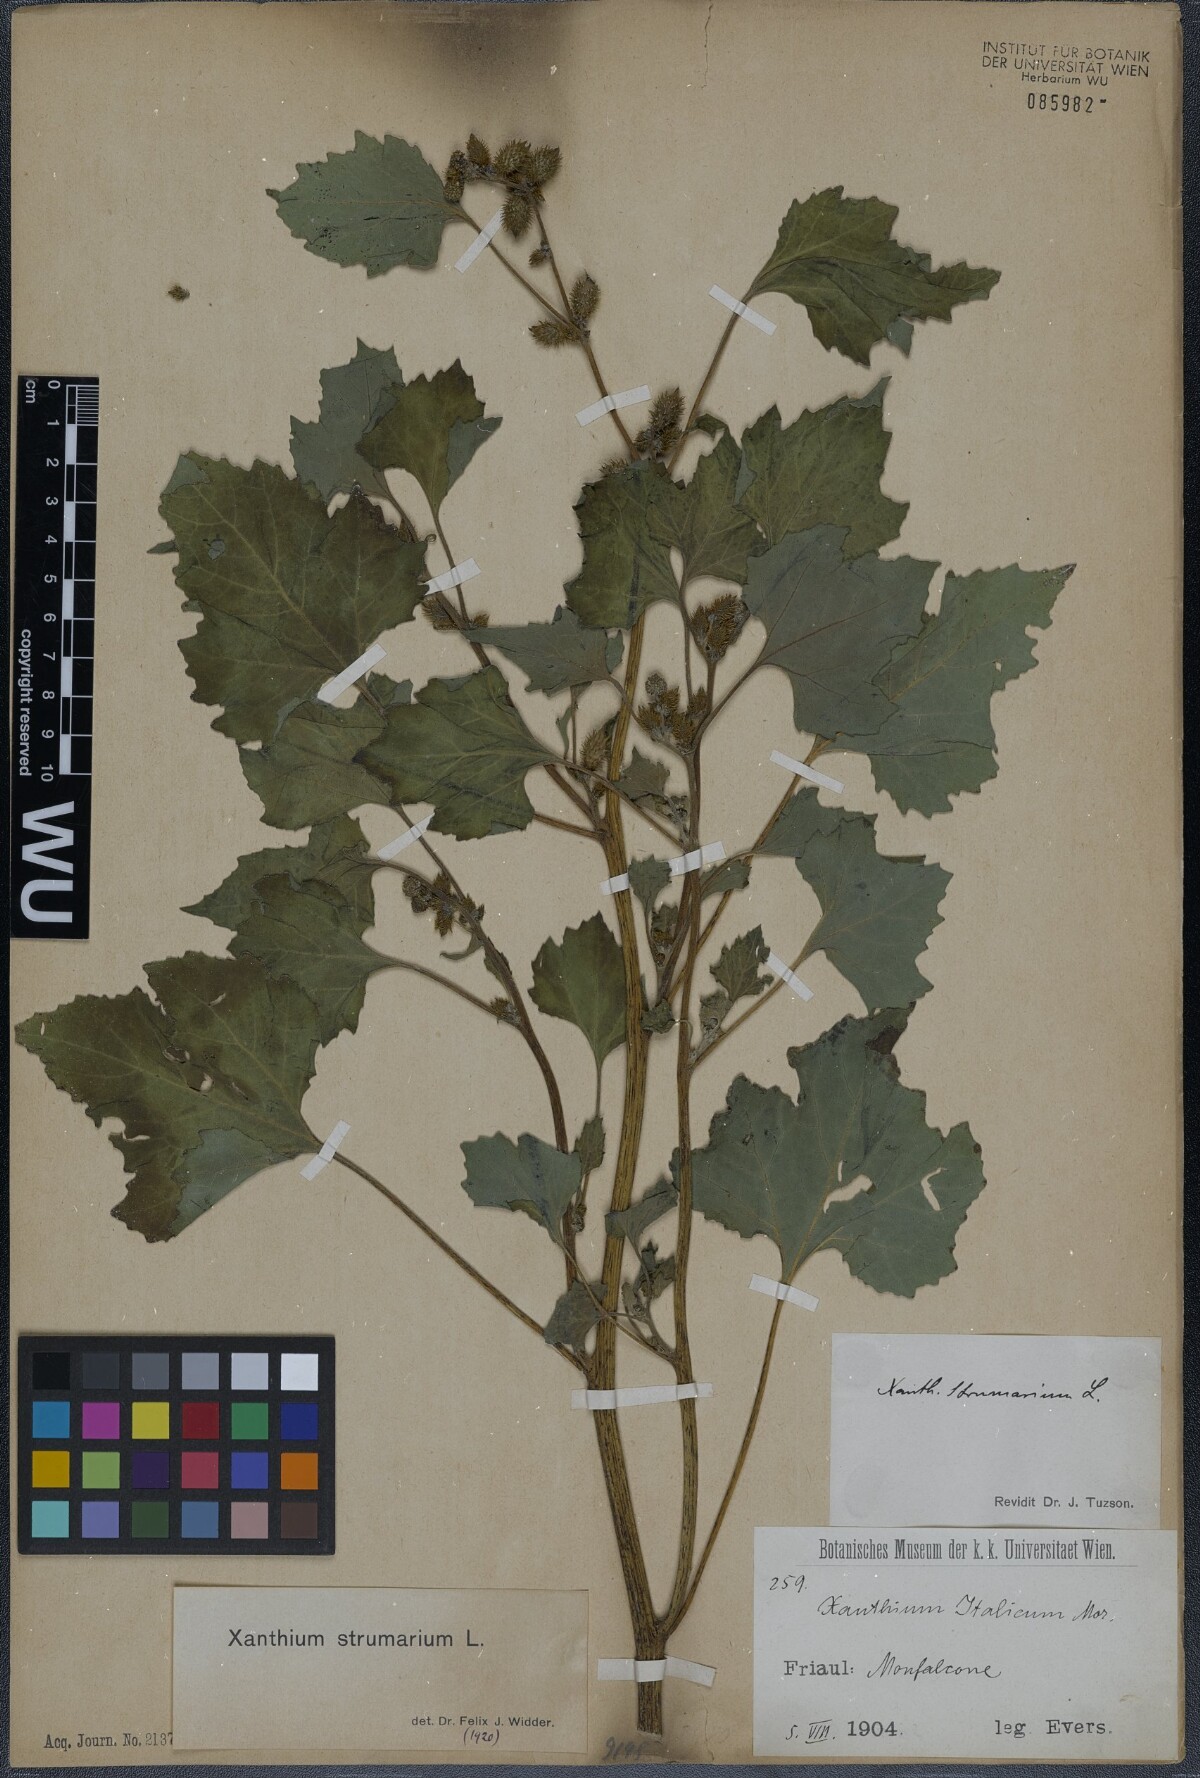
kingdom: Plantae
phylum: Tracheophyta
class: Magnoliopsida
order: Asterales
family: Asteraceae
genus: Xanthium
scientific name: Xanthium strumarium
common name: Rough cocklebur
